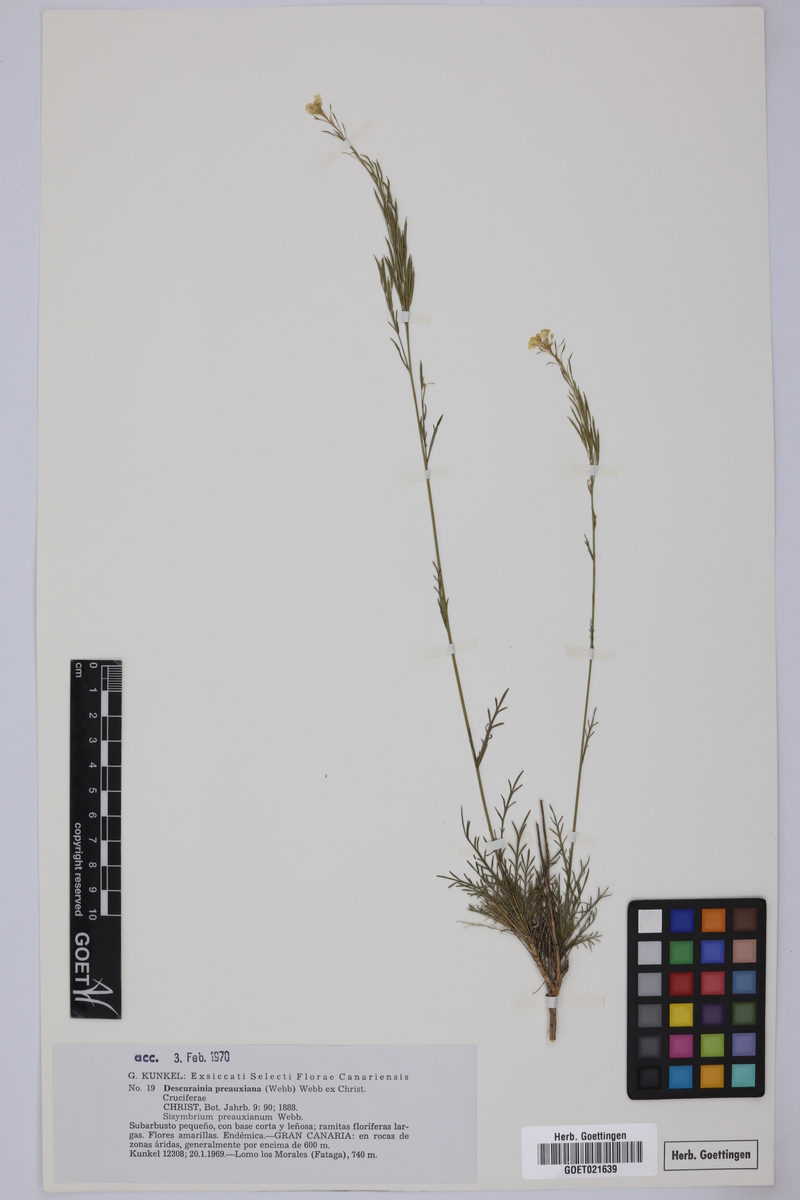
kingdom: Plantae
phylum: Tracheophyta
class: Magnoliopsida
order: Brassicales
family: Brassicaceae
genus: Descurainia
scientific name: Descurainia preauxiana
